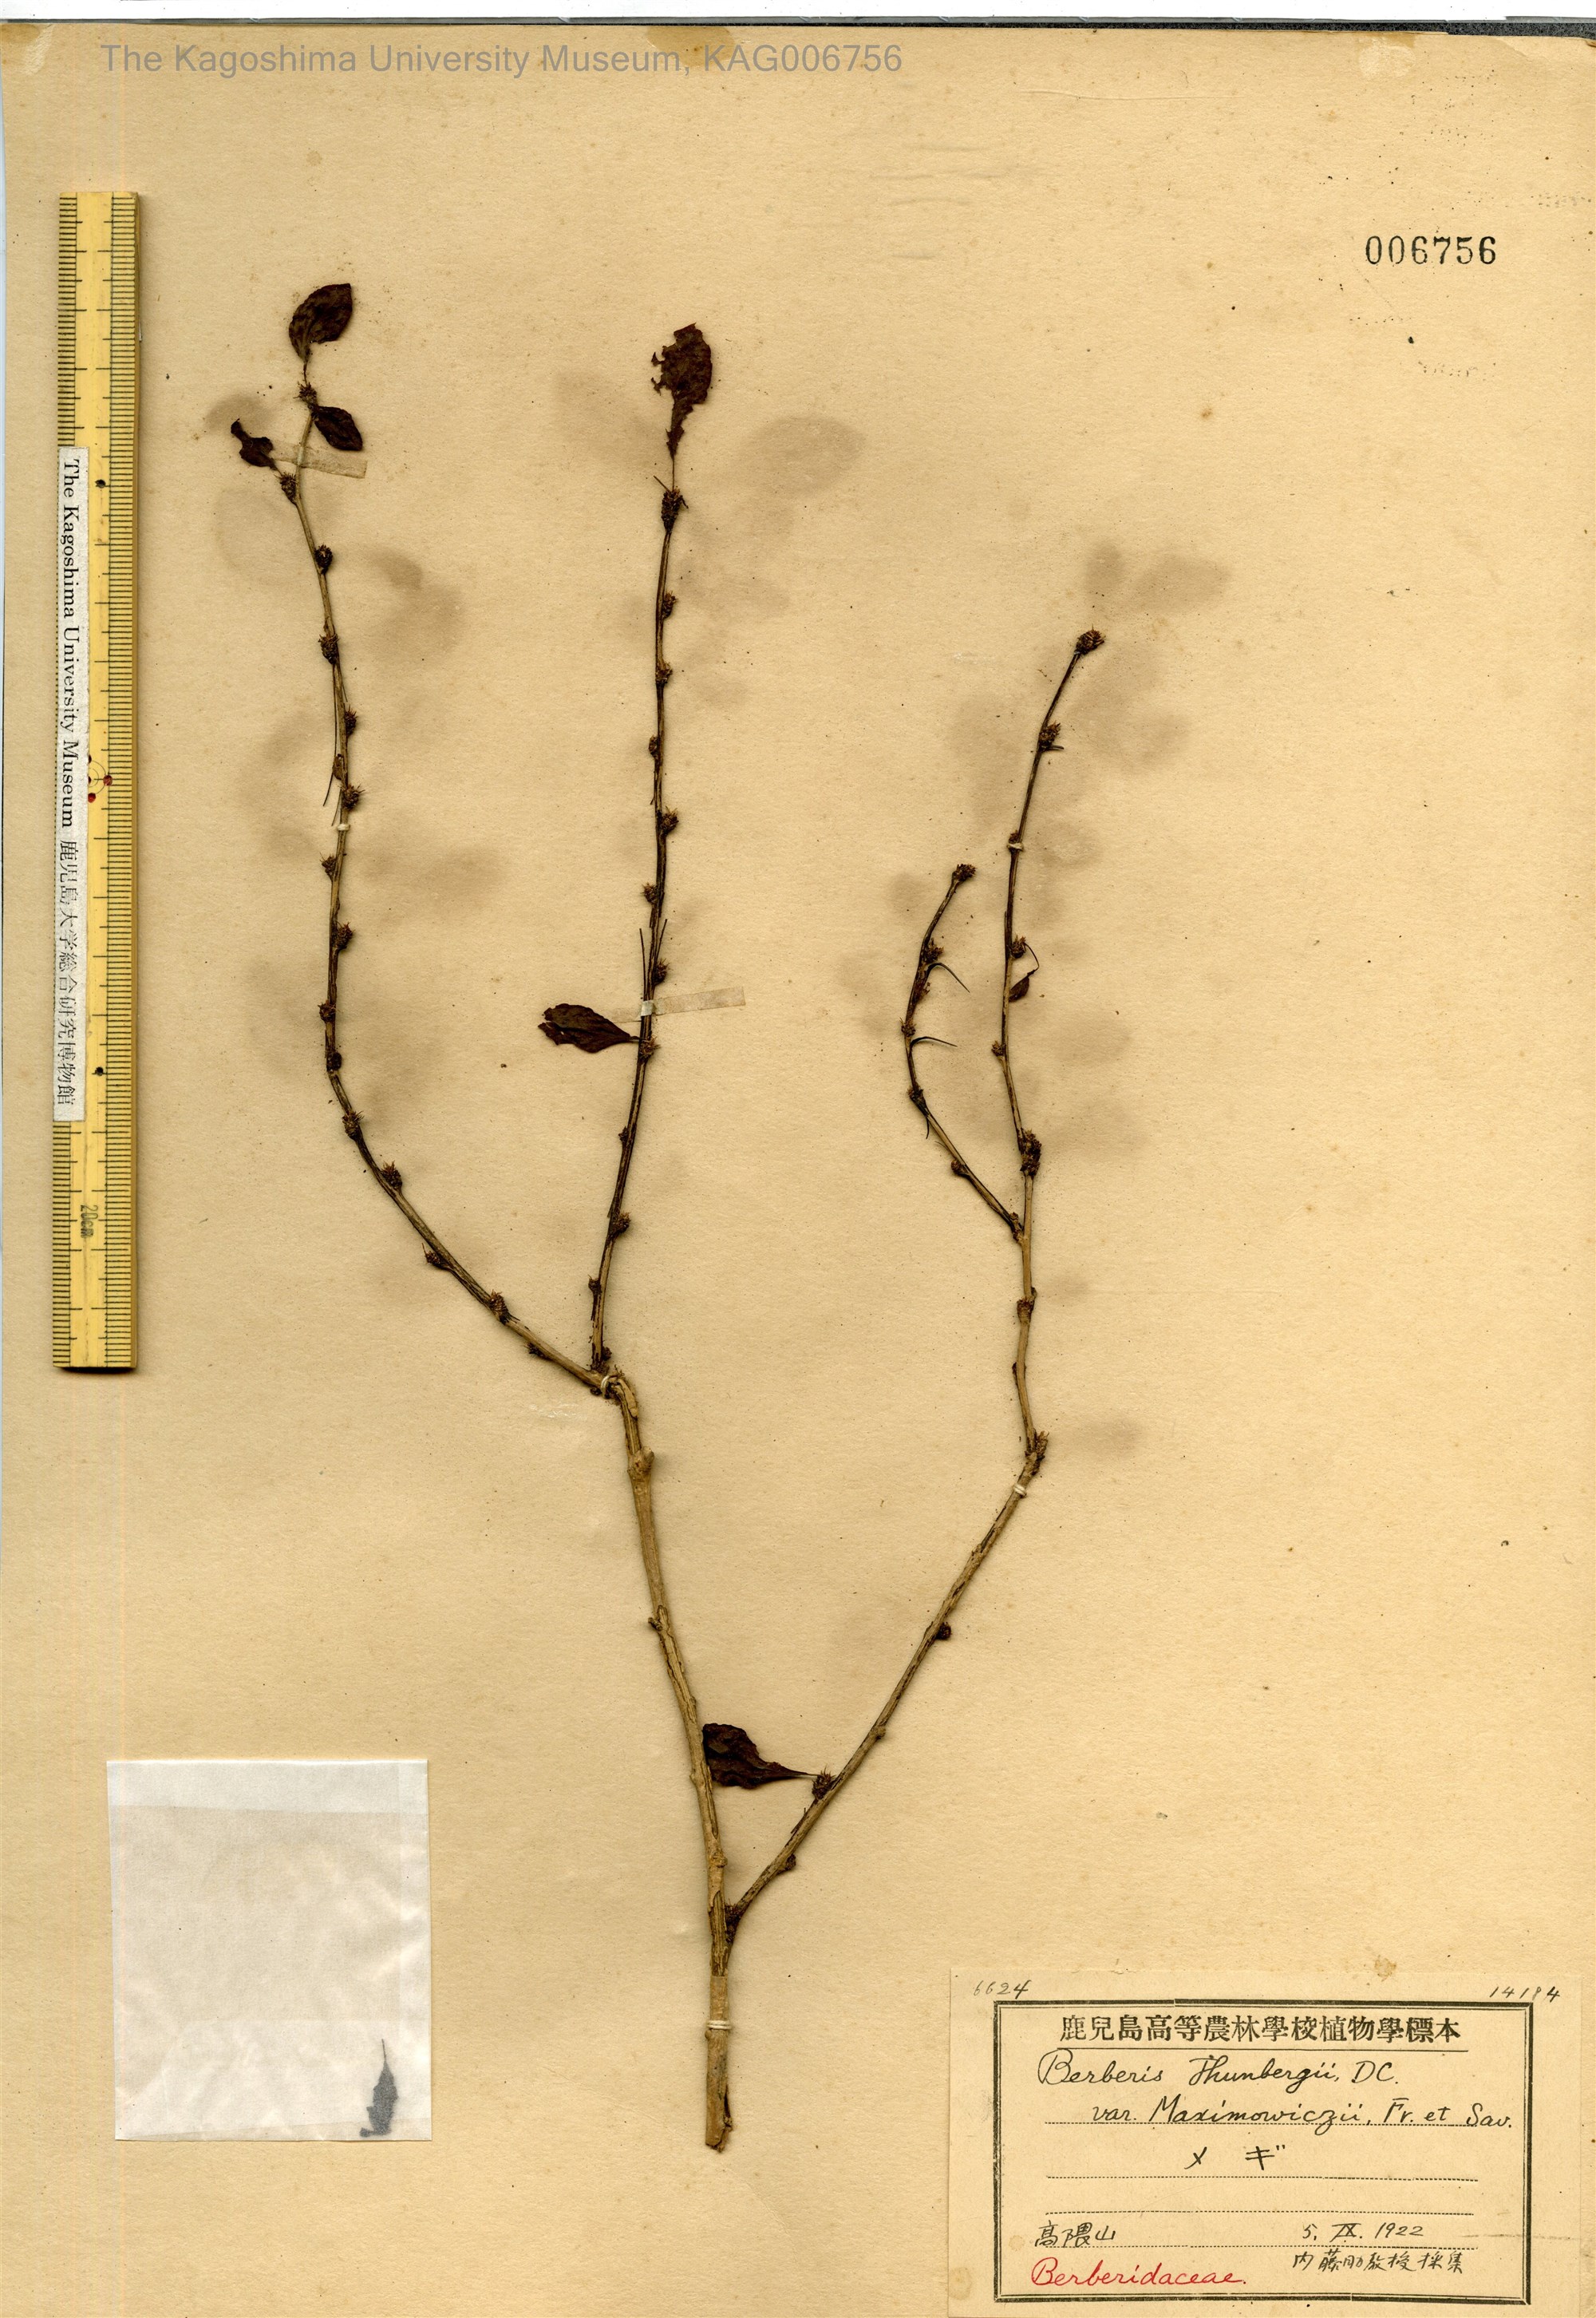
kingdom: Plantae
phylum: Tracheophyta
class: Magnoliopsida
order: Ranunculales
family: Berberidaceae
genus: Berberis
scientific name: Berberis thunbergii
